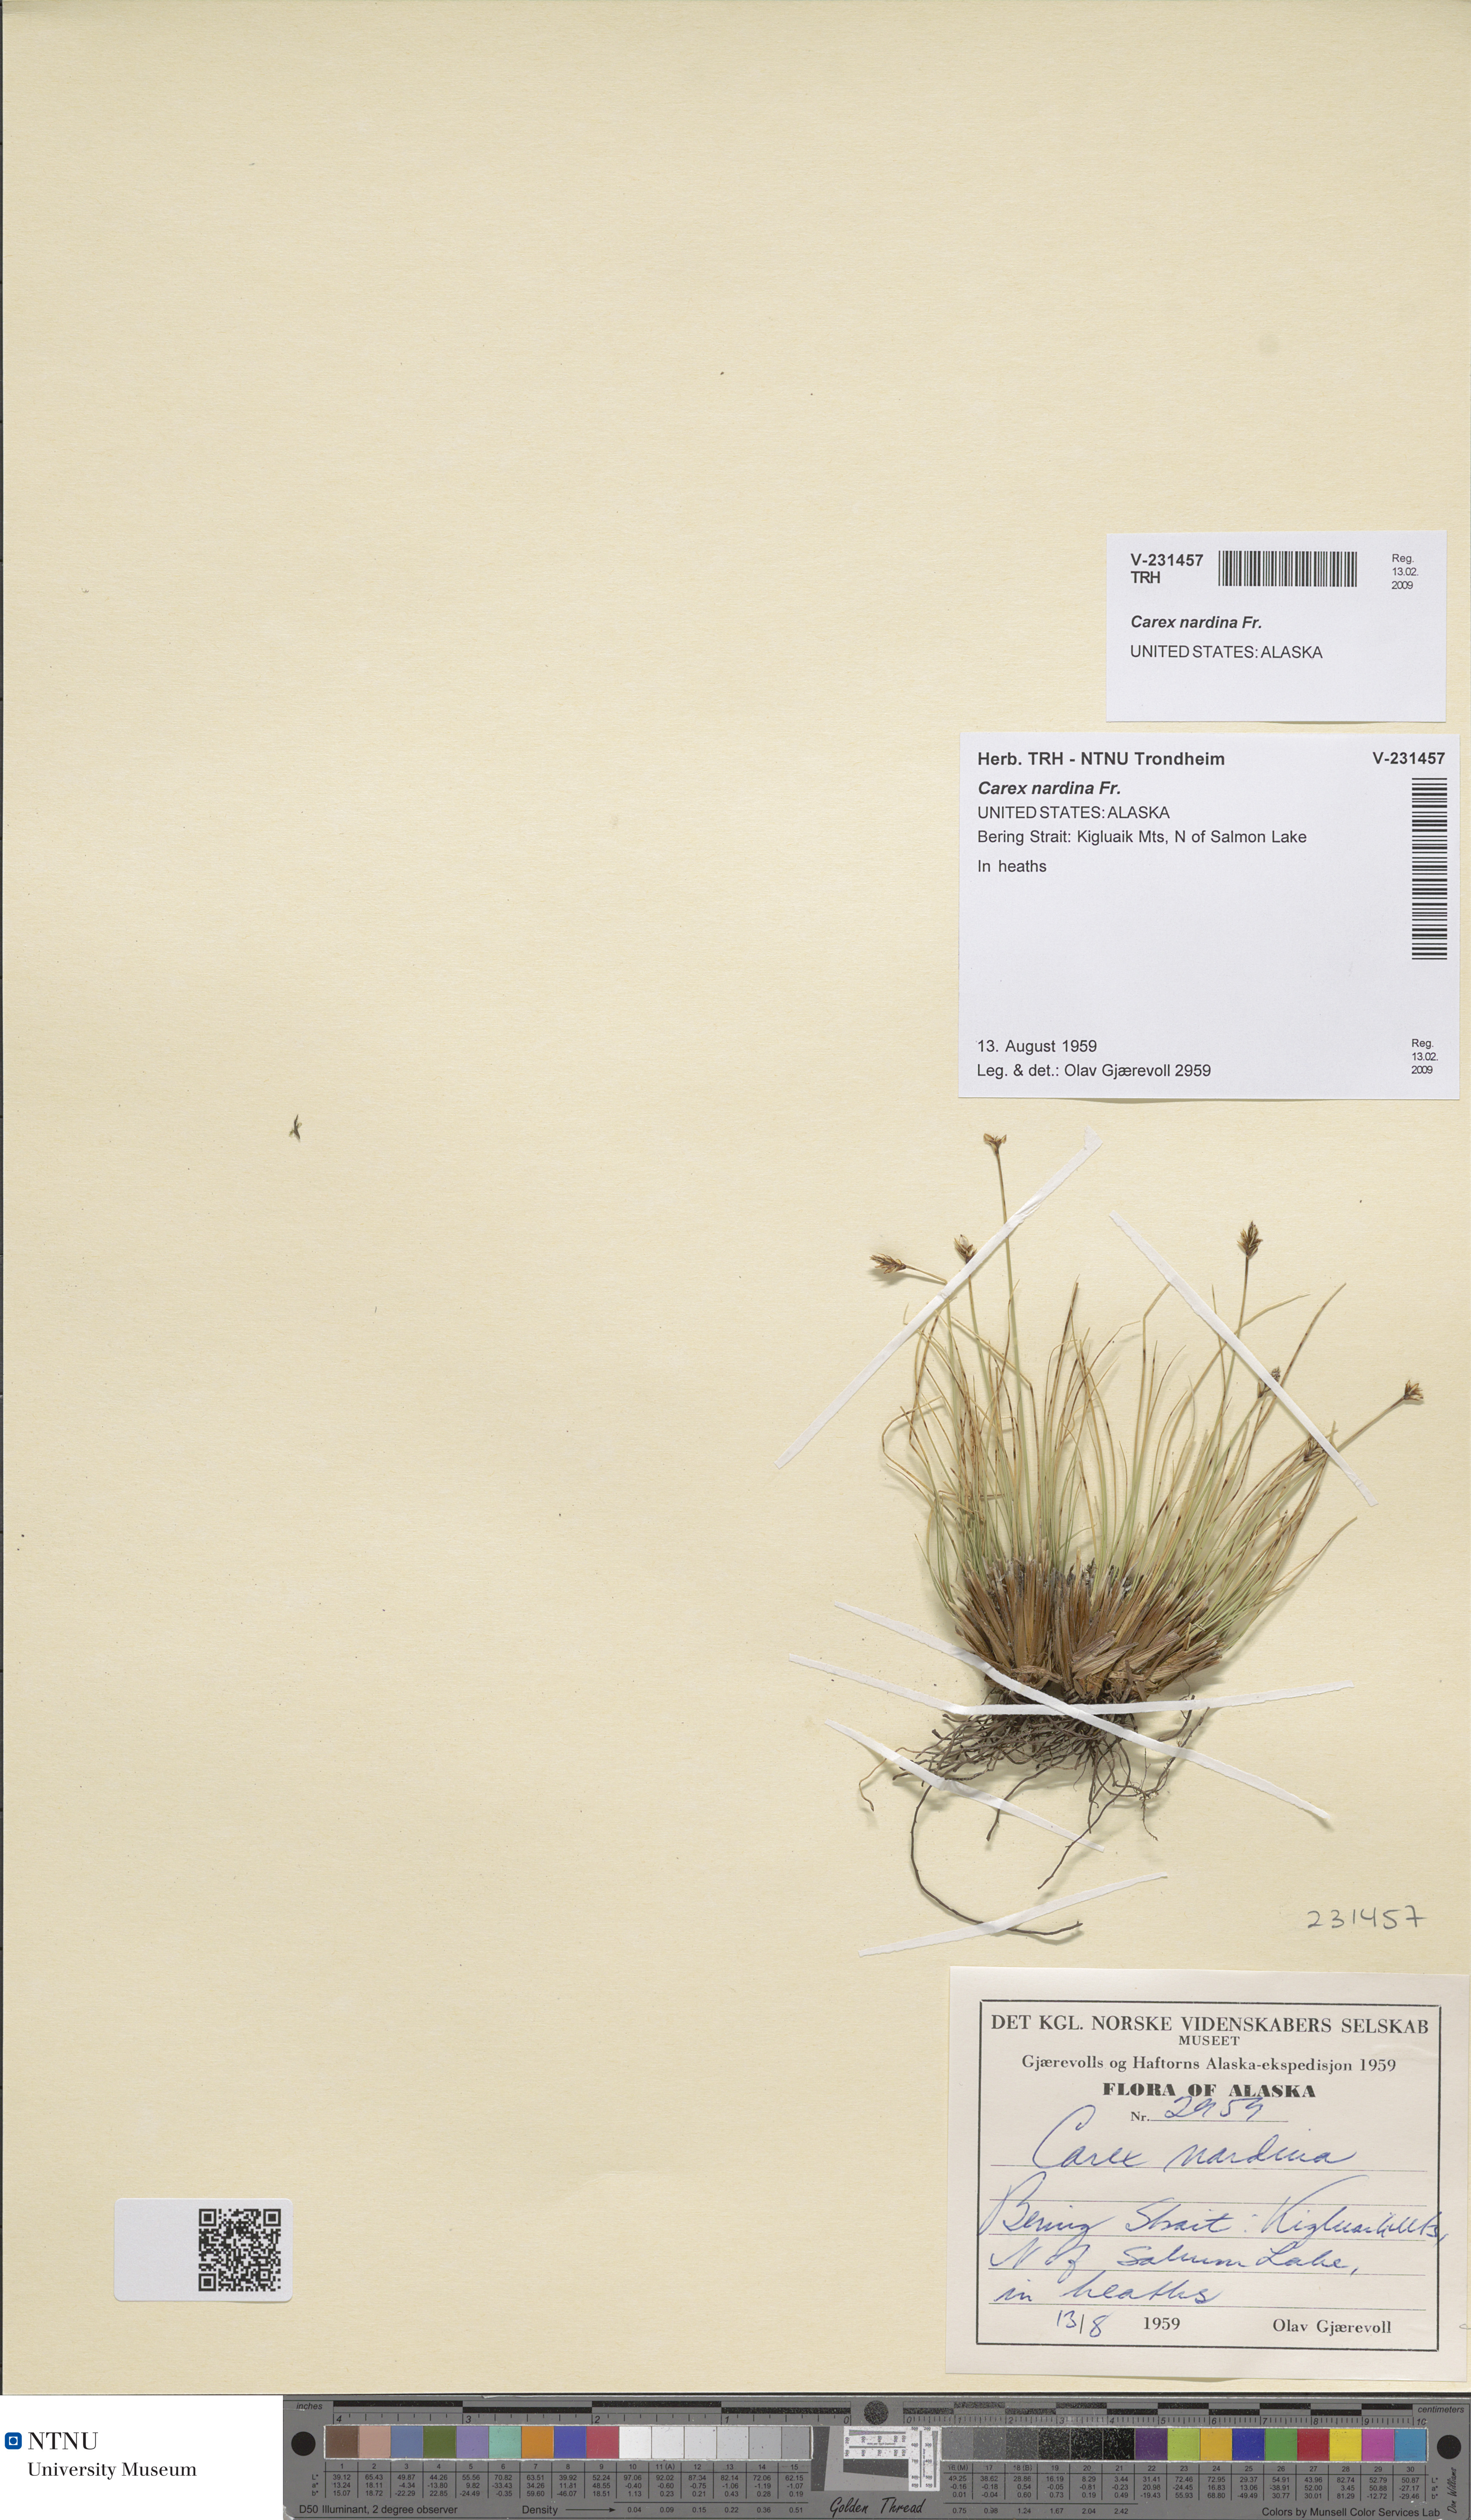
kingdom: Plantae
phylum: Tracheophyta
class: Liliopsida
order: Poales
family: Cyperaceae
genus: Carex
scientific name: Carex nardina
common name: Nard sedge
